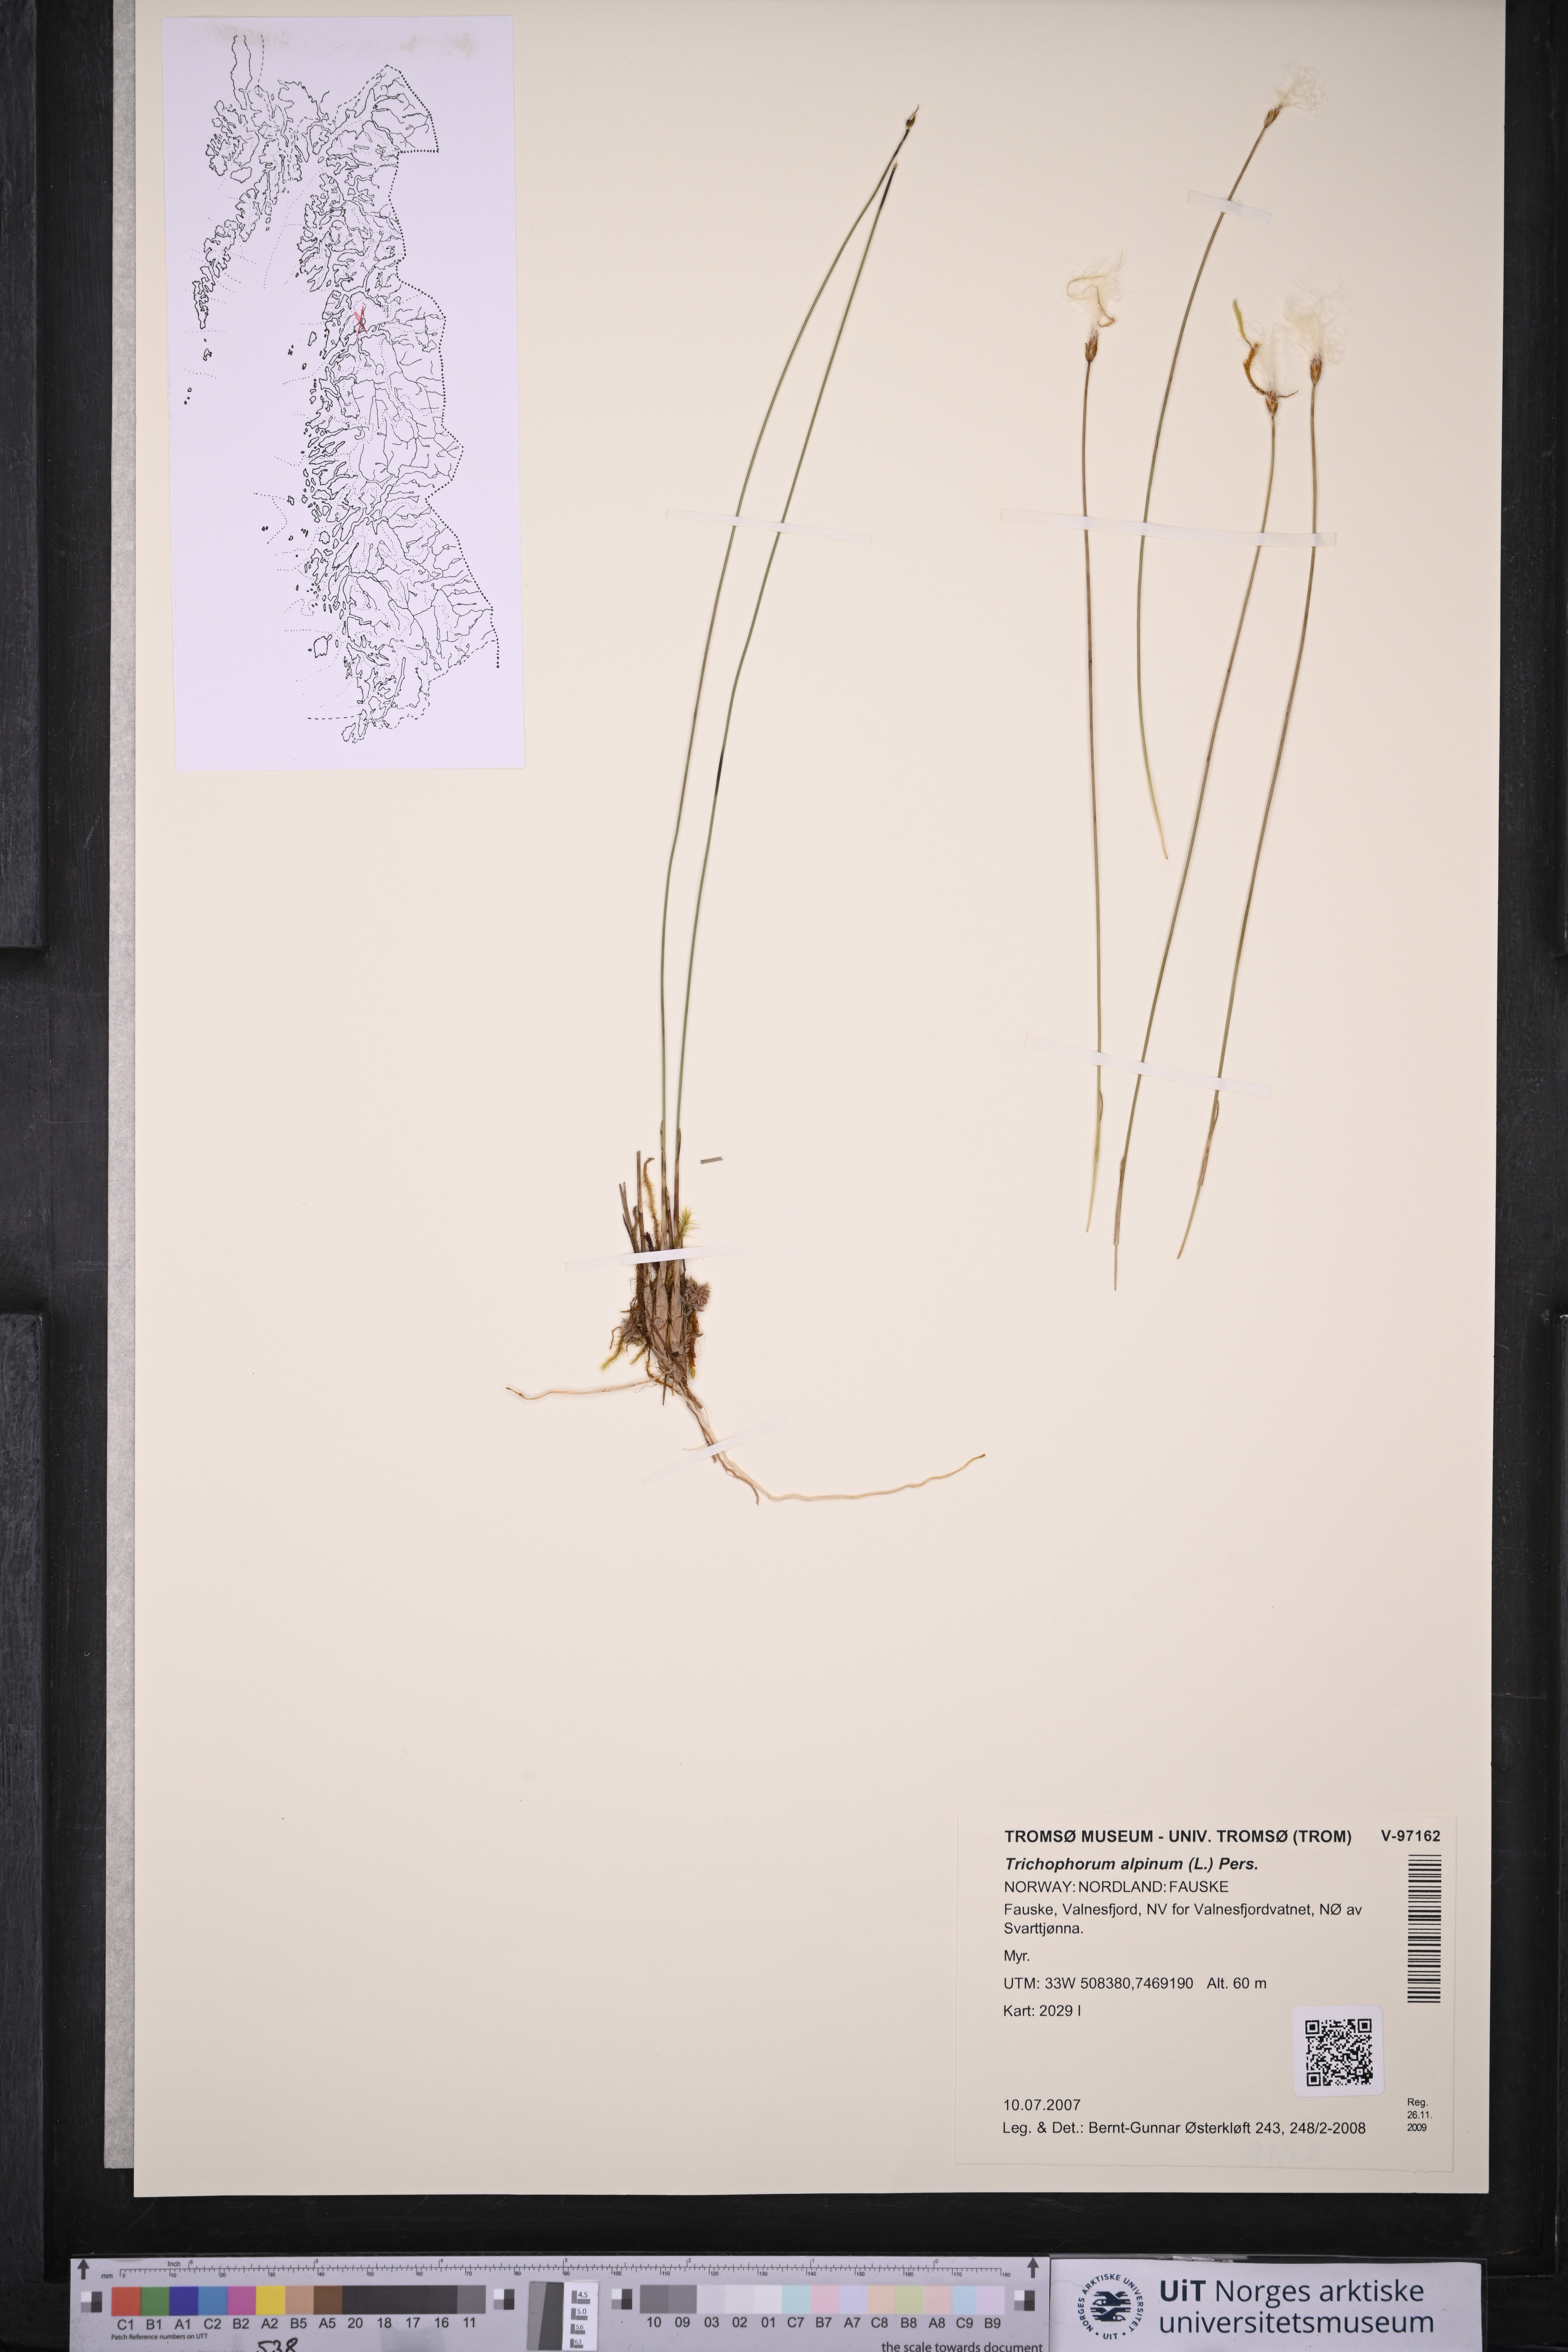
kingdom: Plantae
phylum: Tracheophyta
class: Liliopsida
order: Poales
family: Cyperaceae
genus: Trichophorum
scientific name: Trichophorum alpinum
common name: Alpine bulrush
